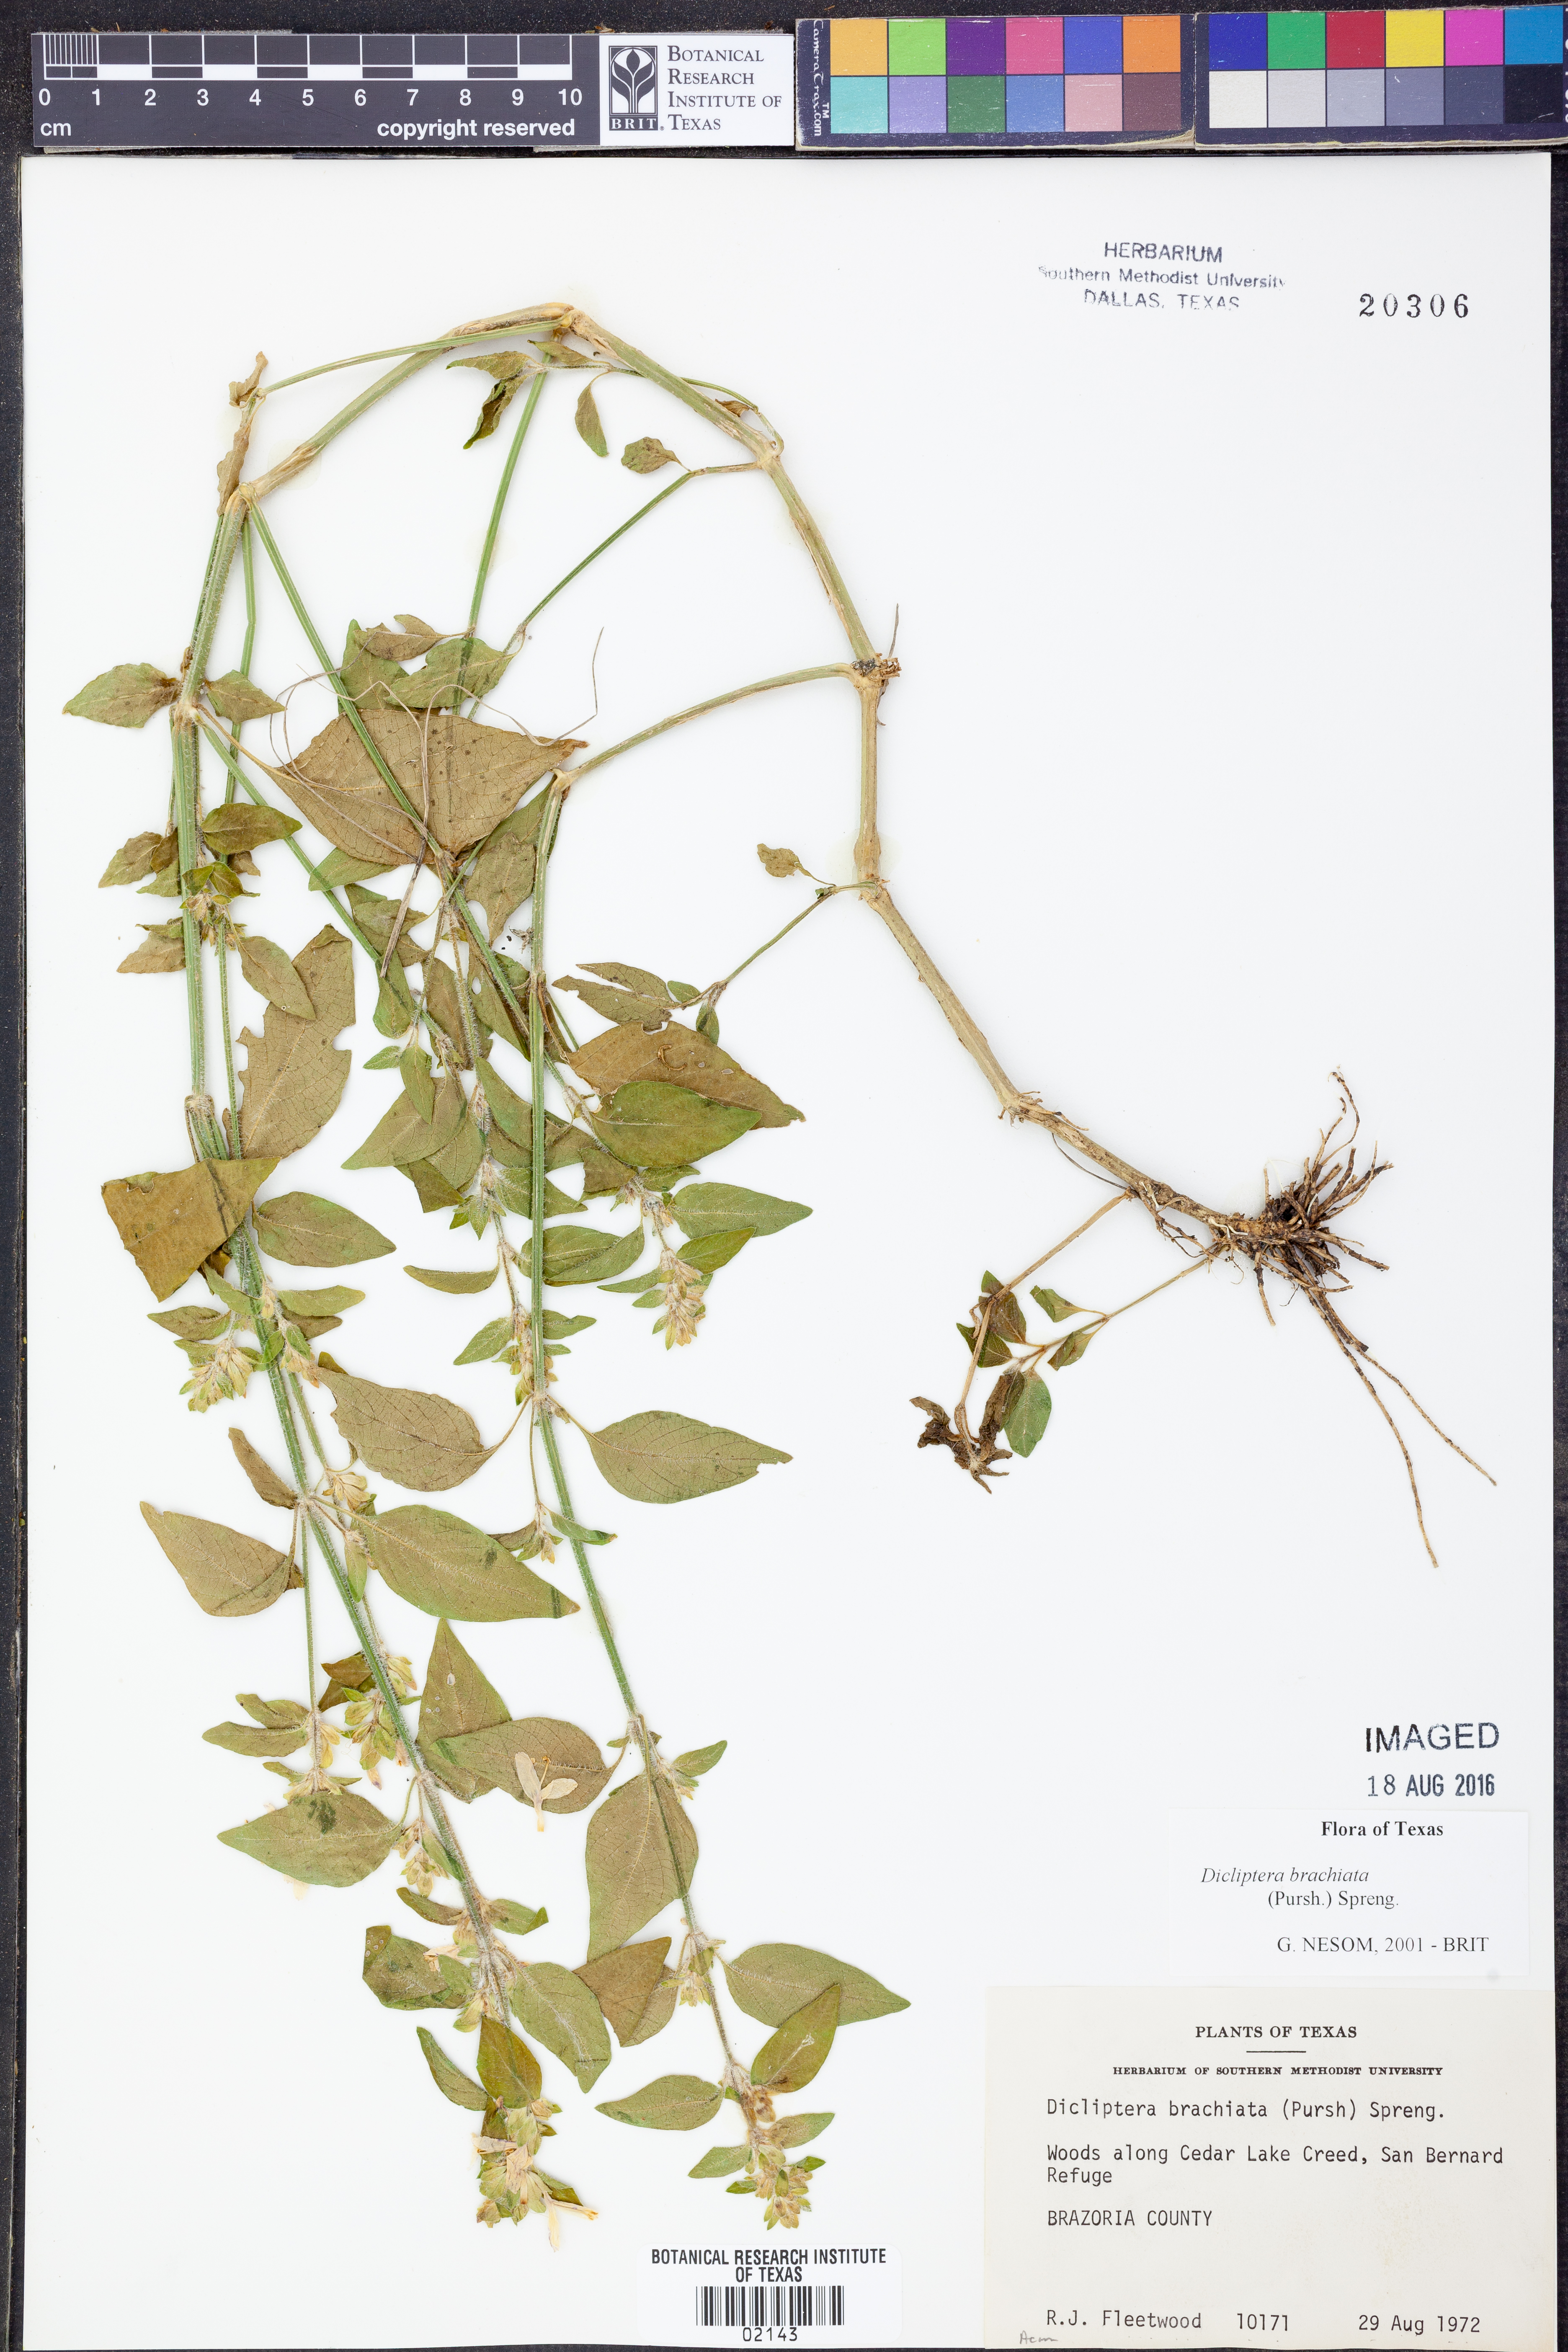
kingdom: Plantae
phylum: Tracheophyta
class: Magnoliopsida
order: Lamiales
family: Acanthaceae
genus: Dicliptera
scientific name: Dicliptera brachiata
